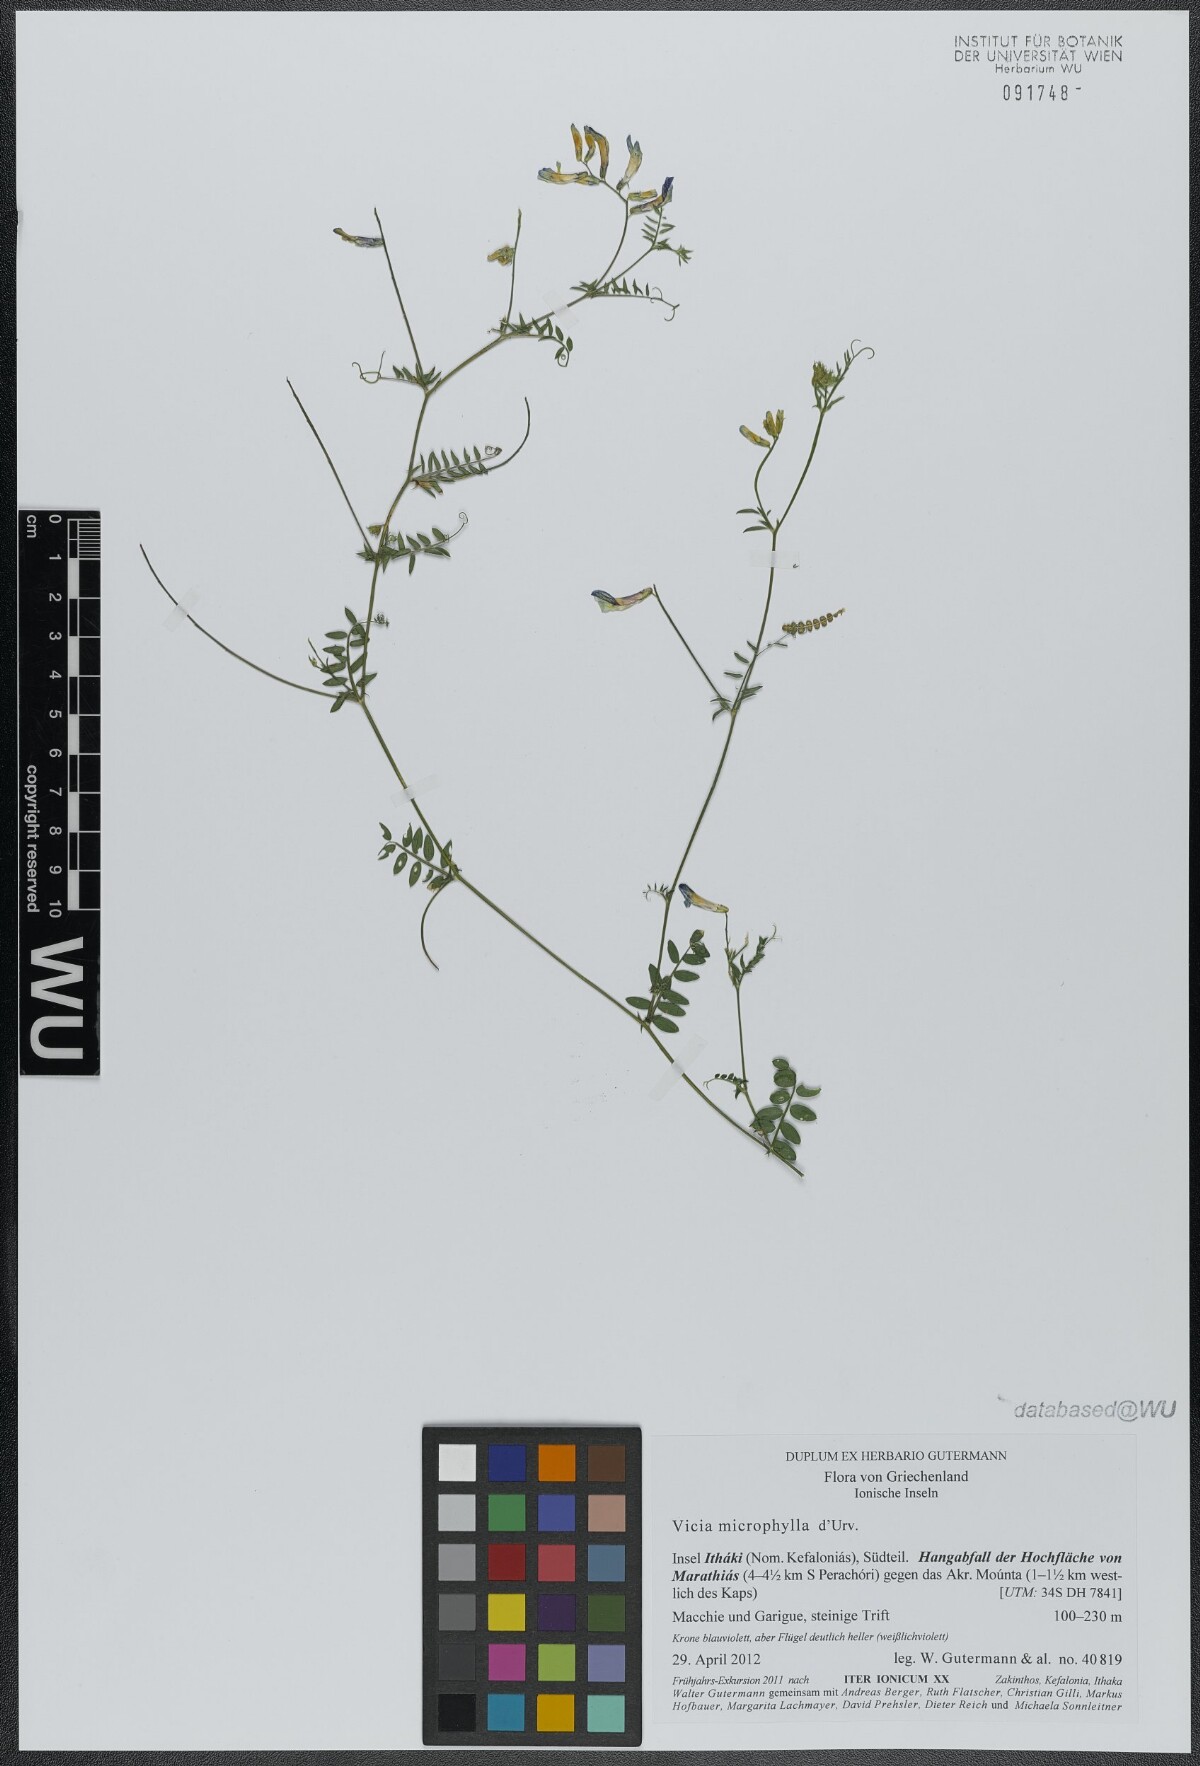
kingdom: Plantae
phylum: Tracheophyta
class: Magnoliopsida
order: Fabales
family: Fabaceae
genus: Vicia
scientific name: Vicia villosa
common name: Fodder vetch
